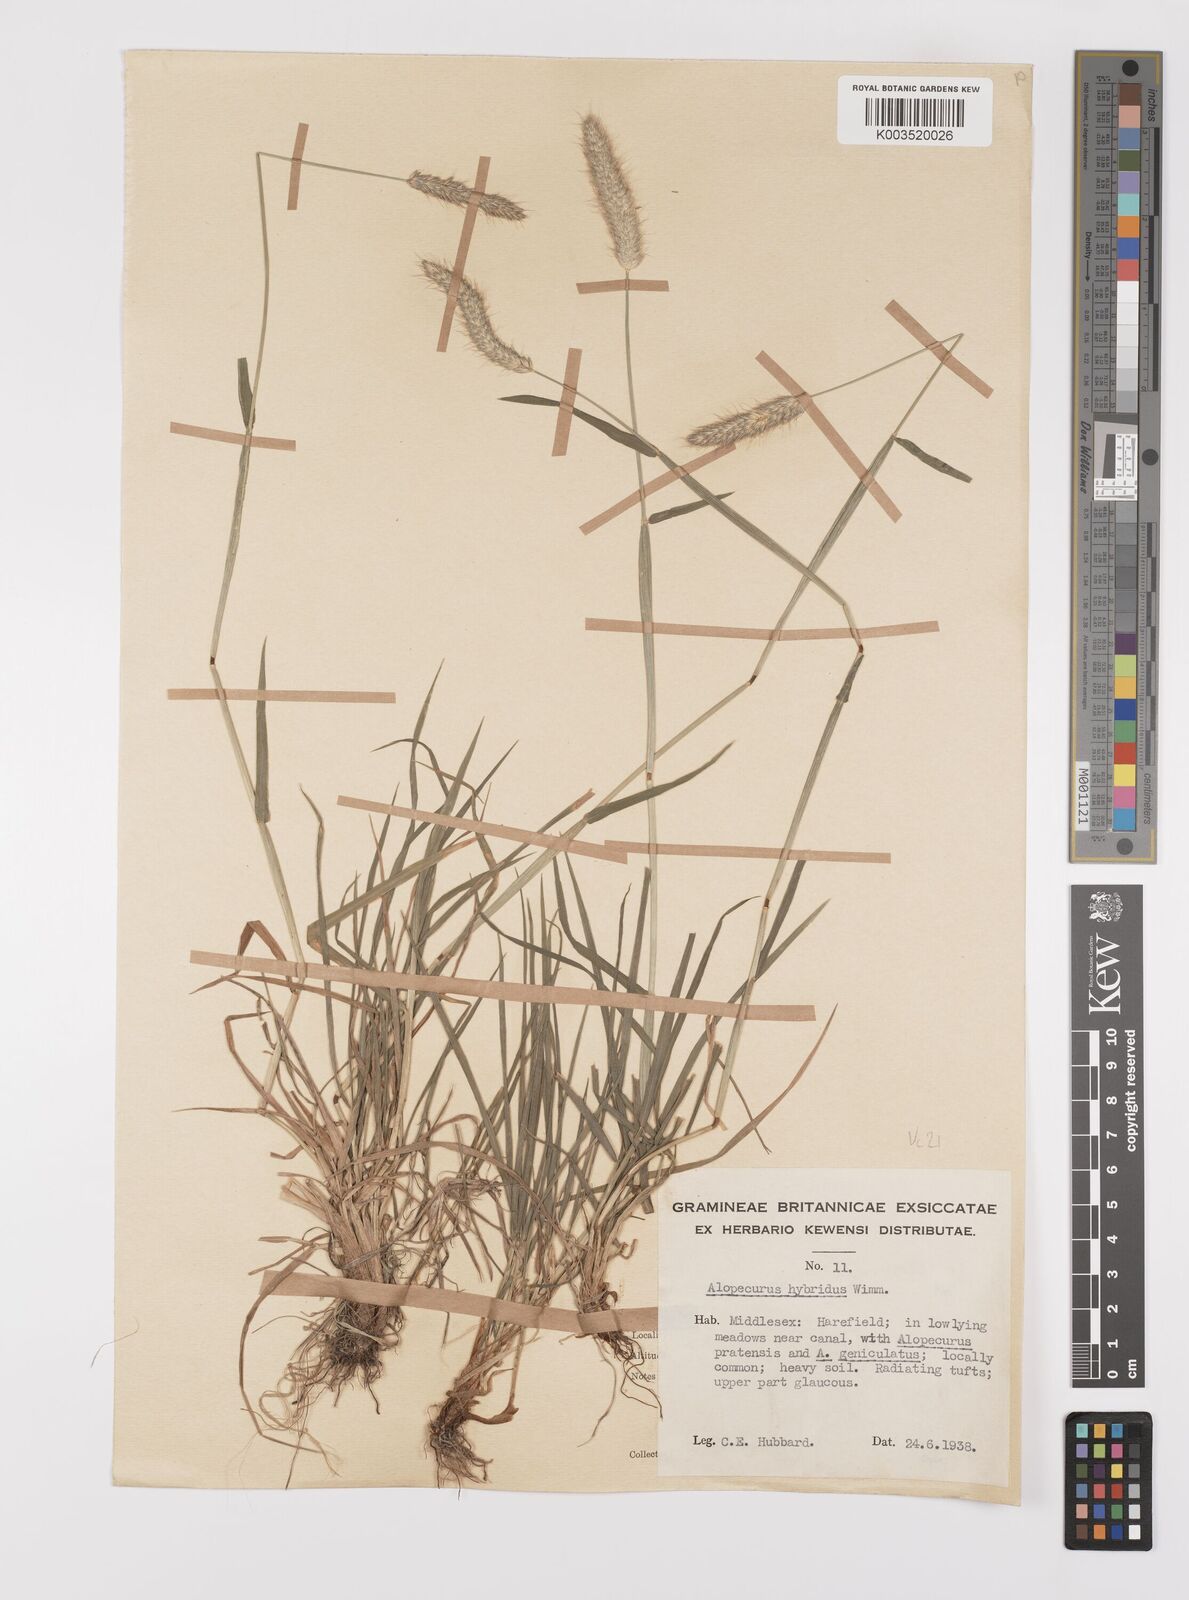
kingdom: Plantae
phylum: Tracheophyta
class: Liliopsida
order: Poales
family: Poaceae
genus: Alopecurus
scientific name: Alopecurus brachystylus
